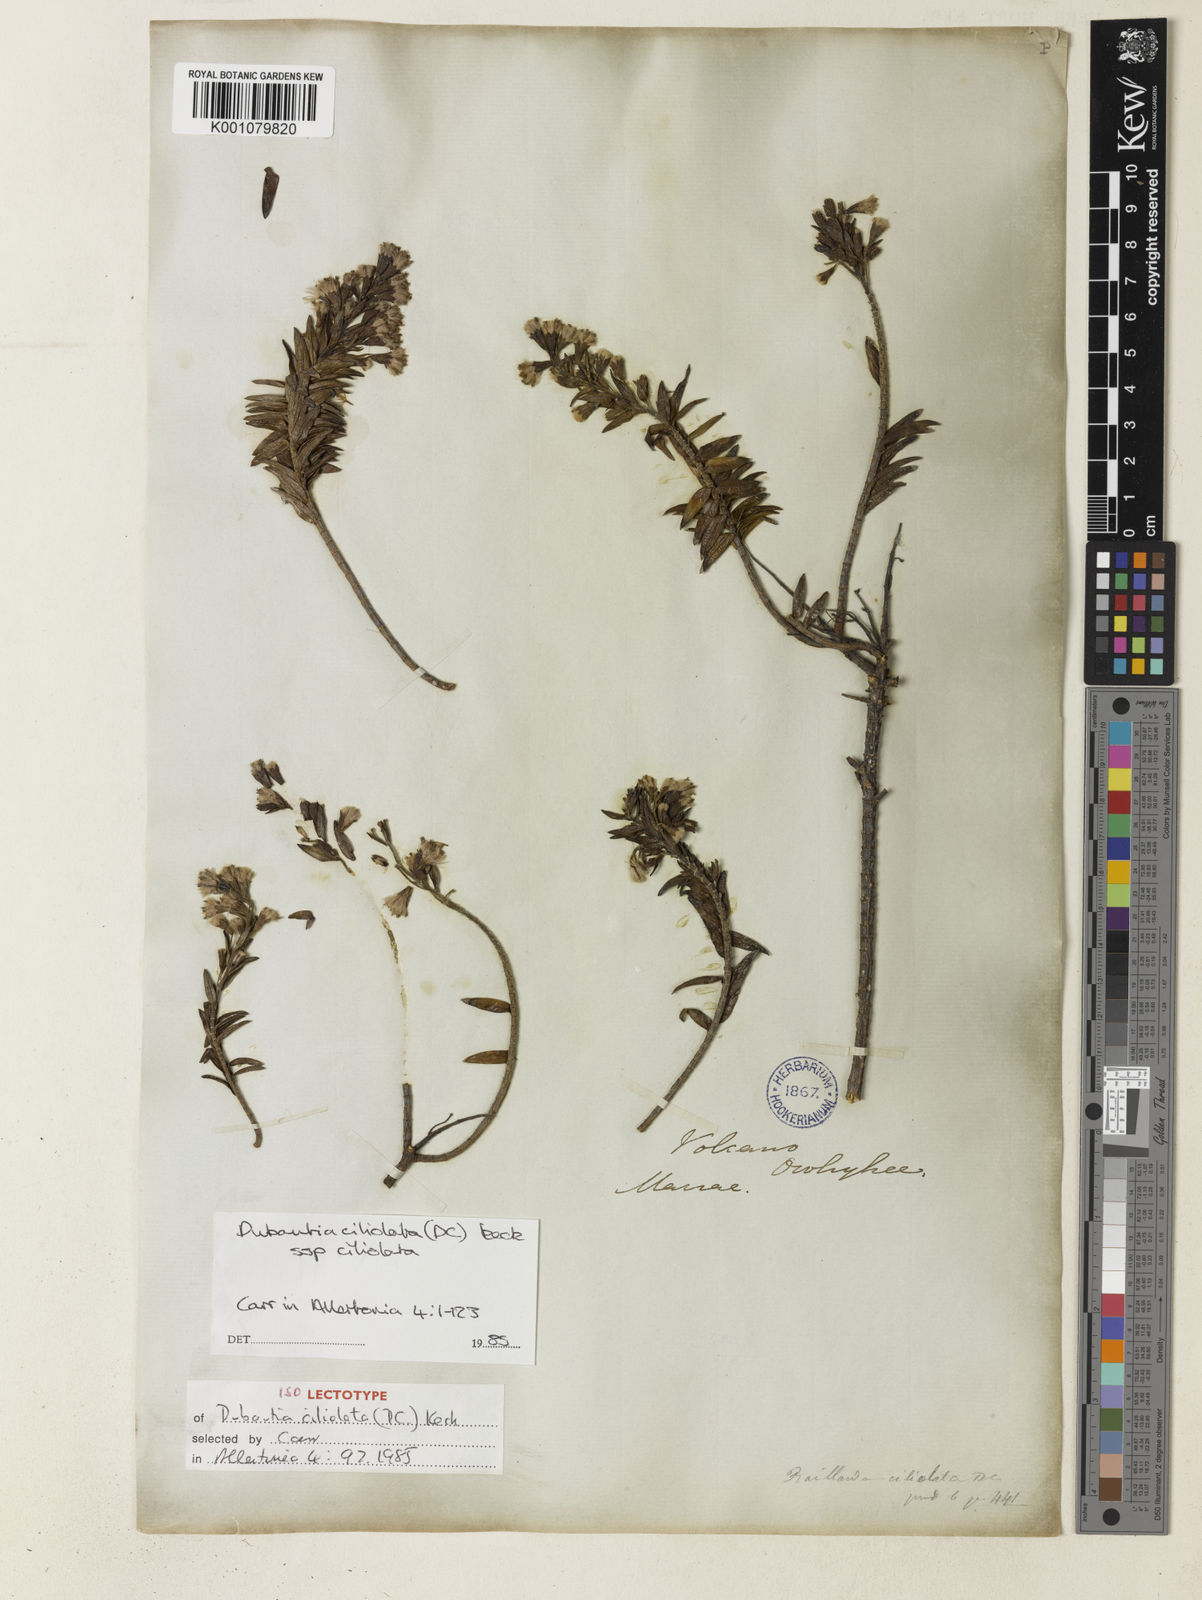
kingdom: Plantae
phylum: Tracheophyta
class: Magnoliopsida
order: Asterales
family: Asteraceae
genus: Dubautia
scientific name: Dubautia ciliolata
